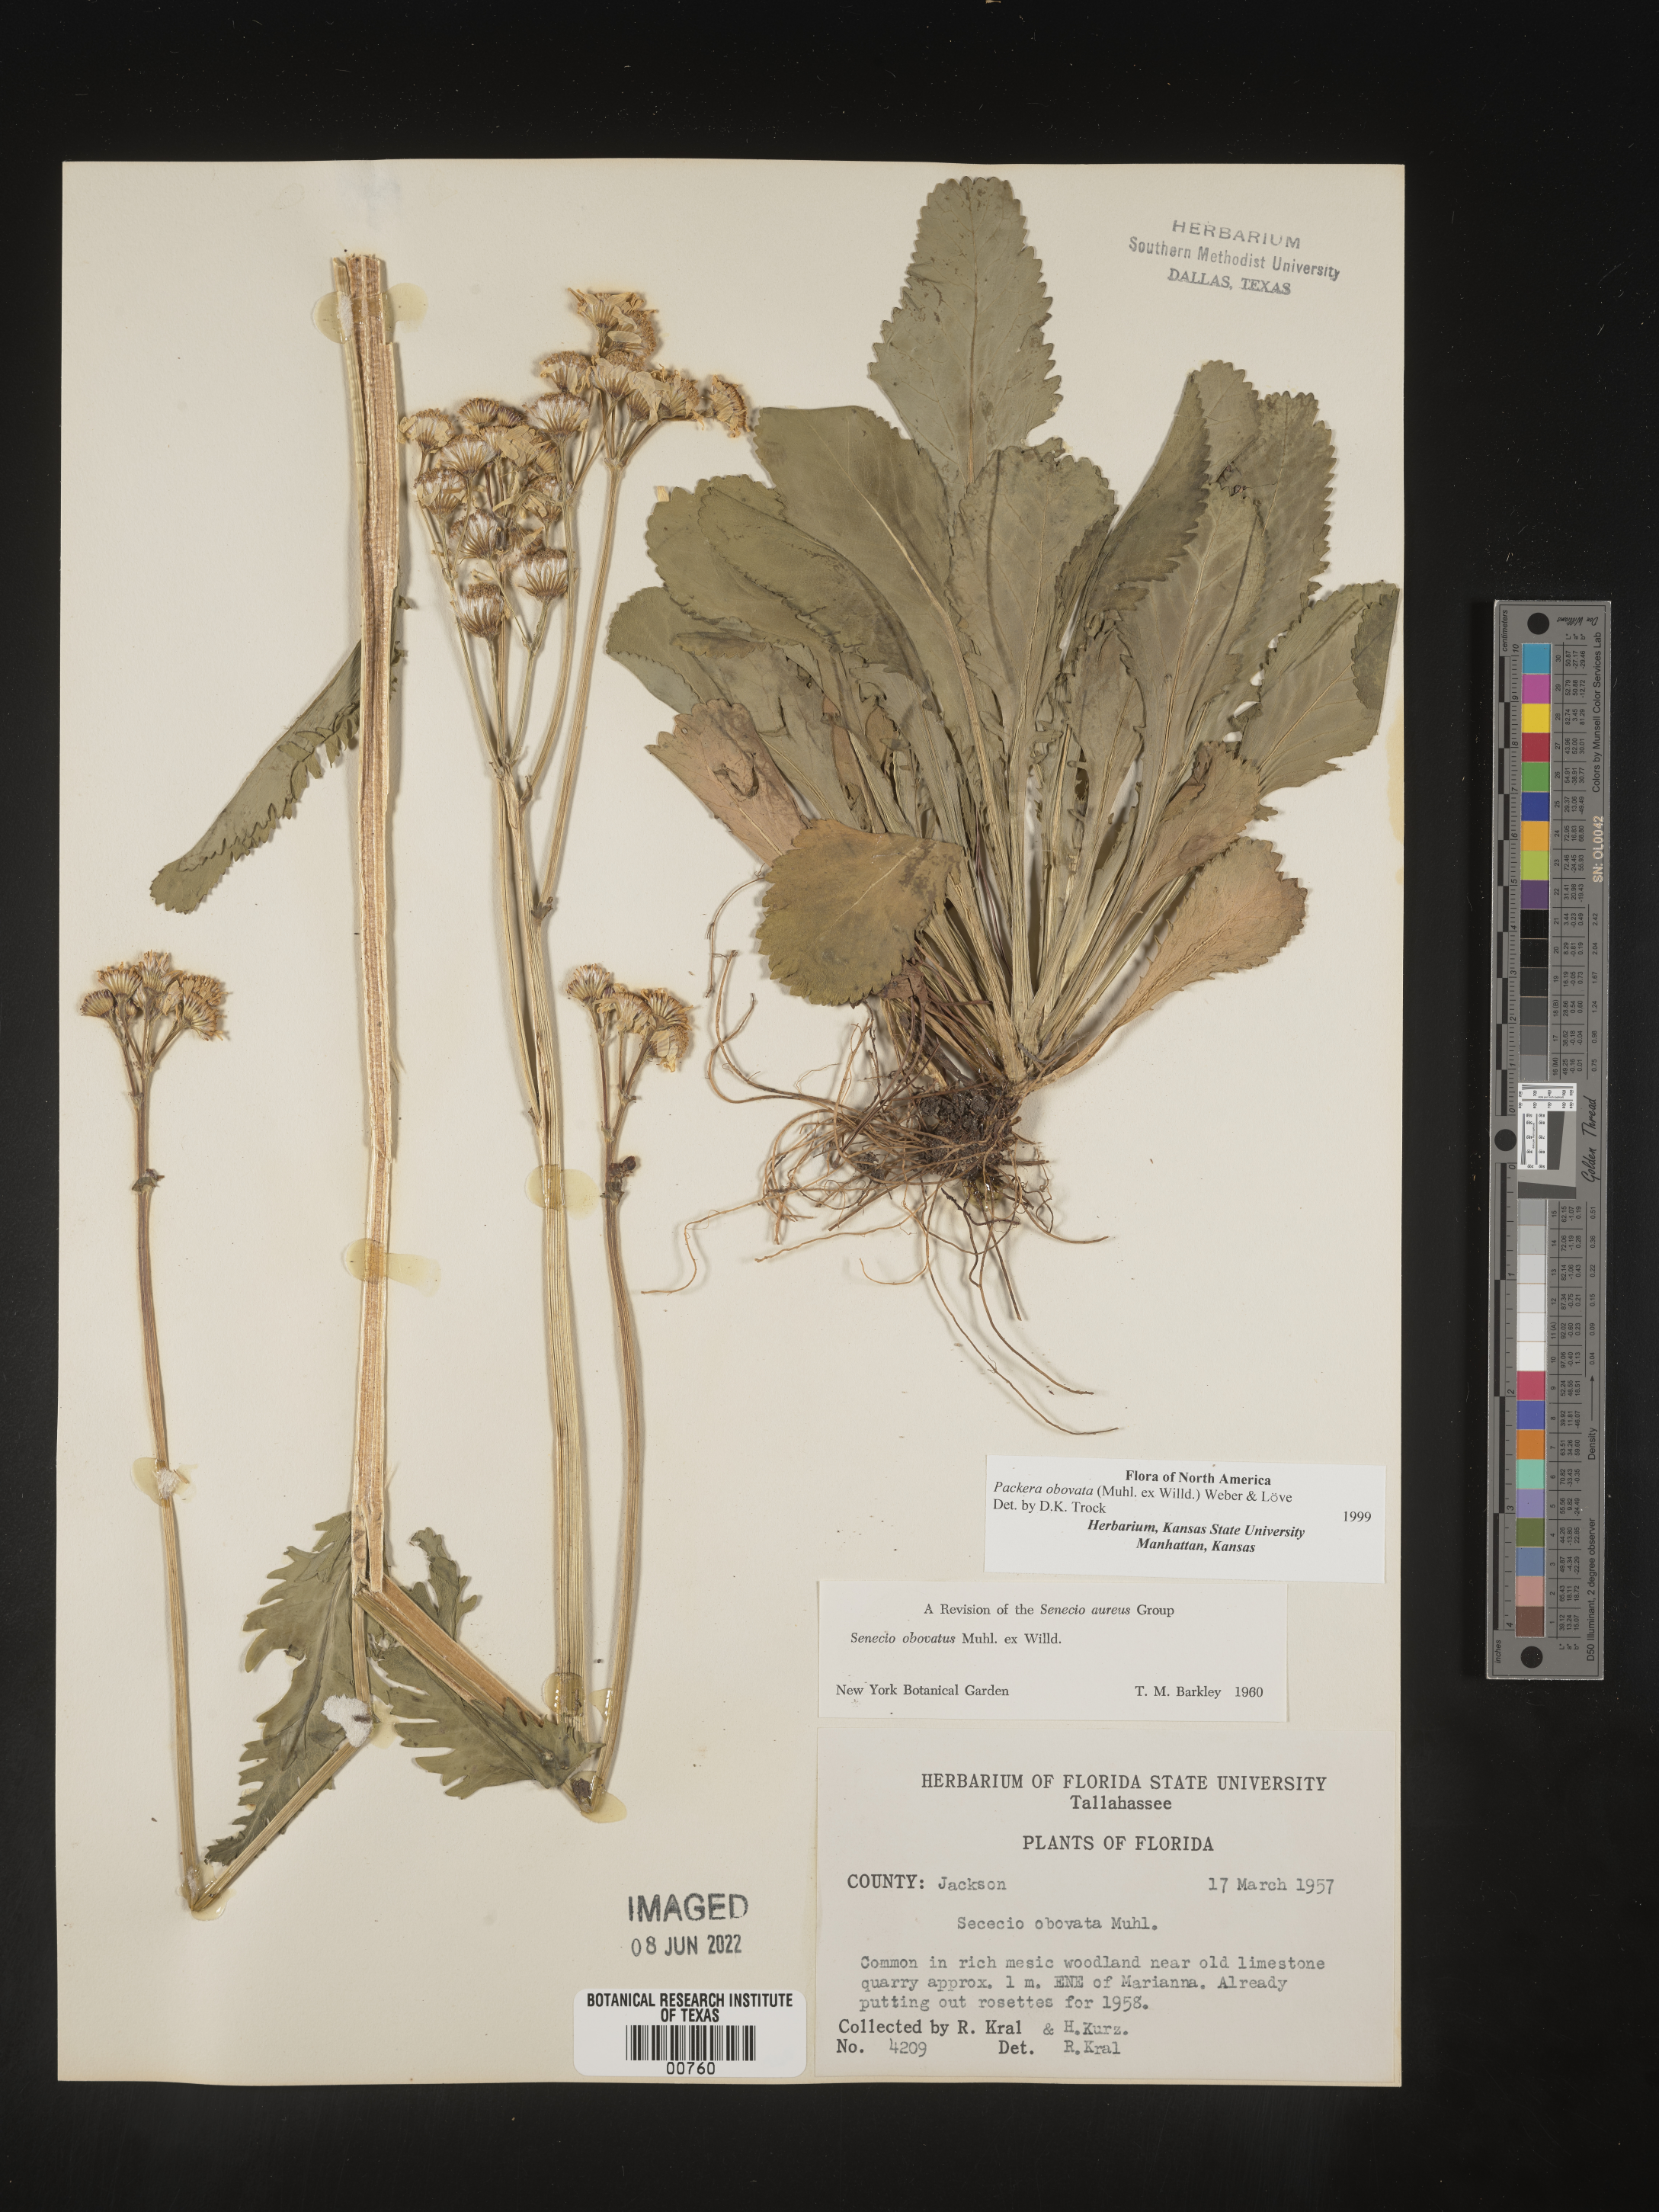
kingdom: Plantae
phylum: Tracheophyta
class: Magnoliopsida
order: Asterales
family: Asteraceae
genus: Packera
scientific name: Packera obovata
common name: Round-leaf ragwort
